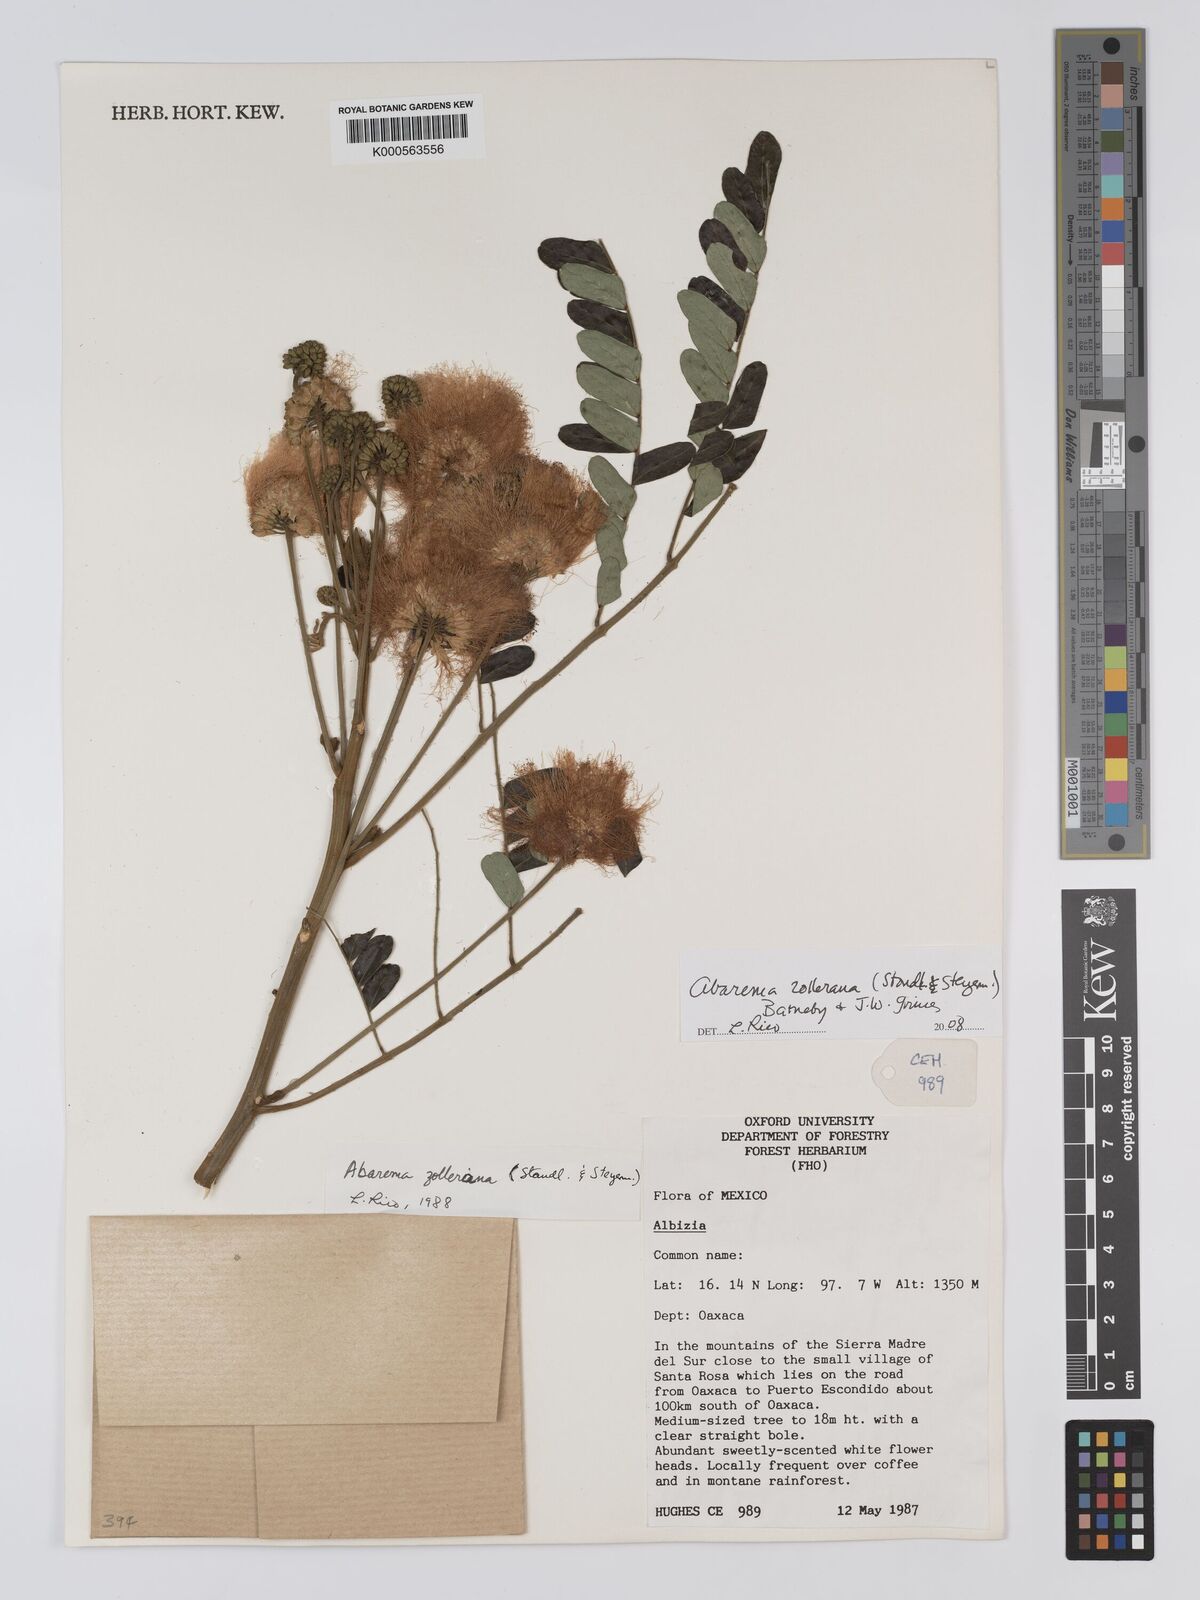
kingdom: Plantae
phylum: Tracheophyta
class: Magnoliopsida
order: Fabales
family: Fabaceae
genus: Jupunba
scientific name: Jupunba zolleriana
